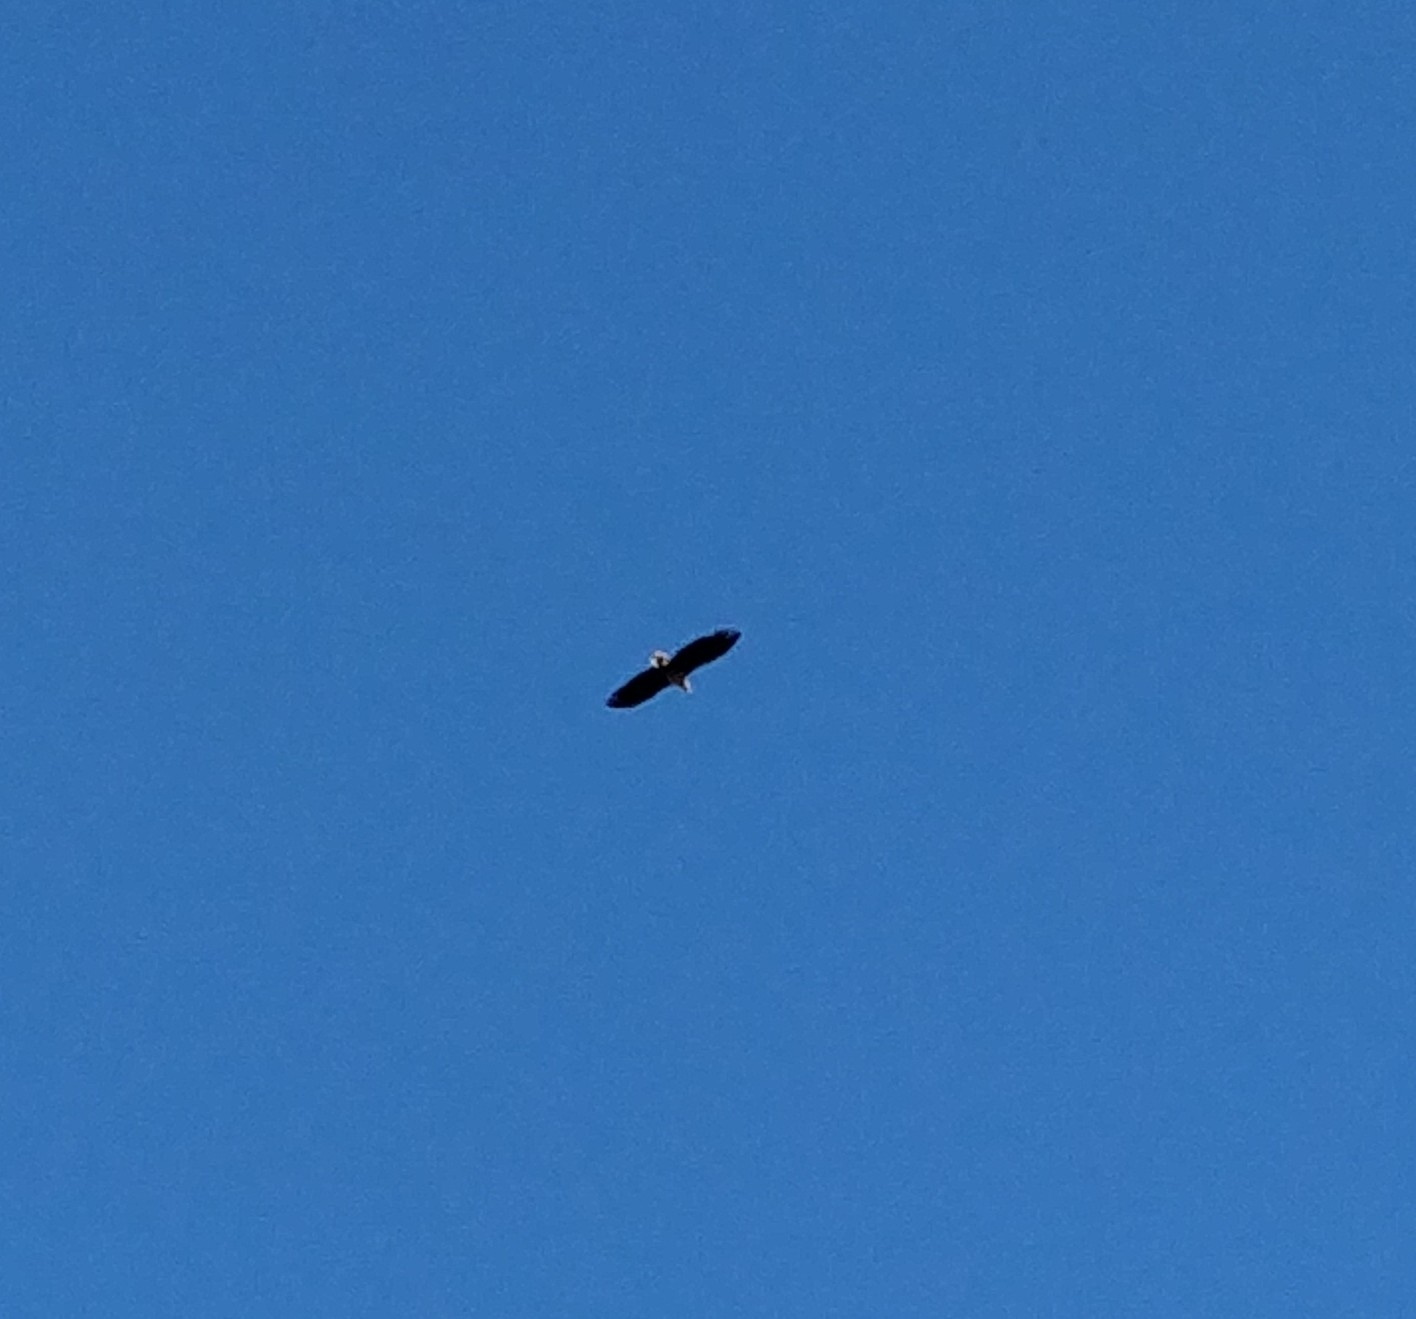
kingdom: Animalia
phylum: Chordata
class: Aves
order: Accipitriformes
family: Accipitridae
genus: Haliaeetus
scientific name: Haliaeetus albicilla
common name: Havørn
